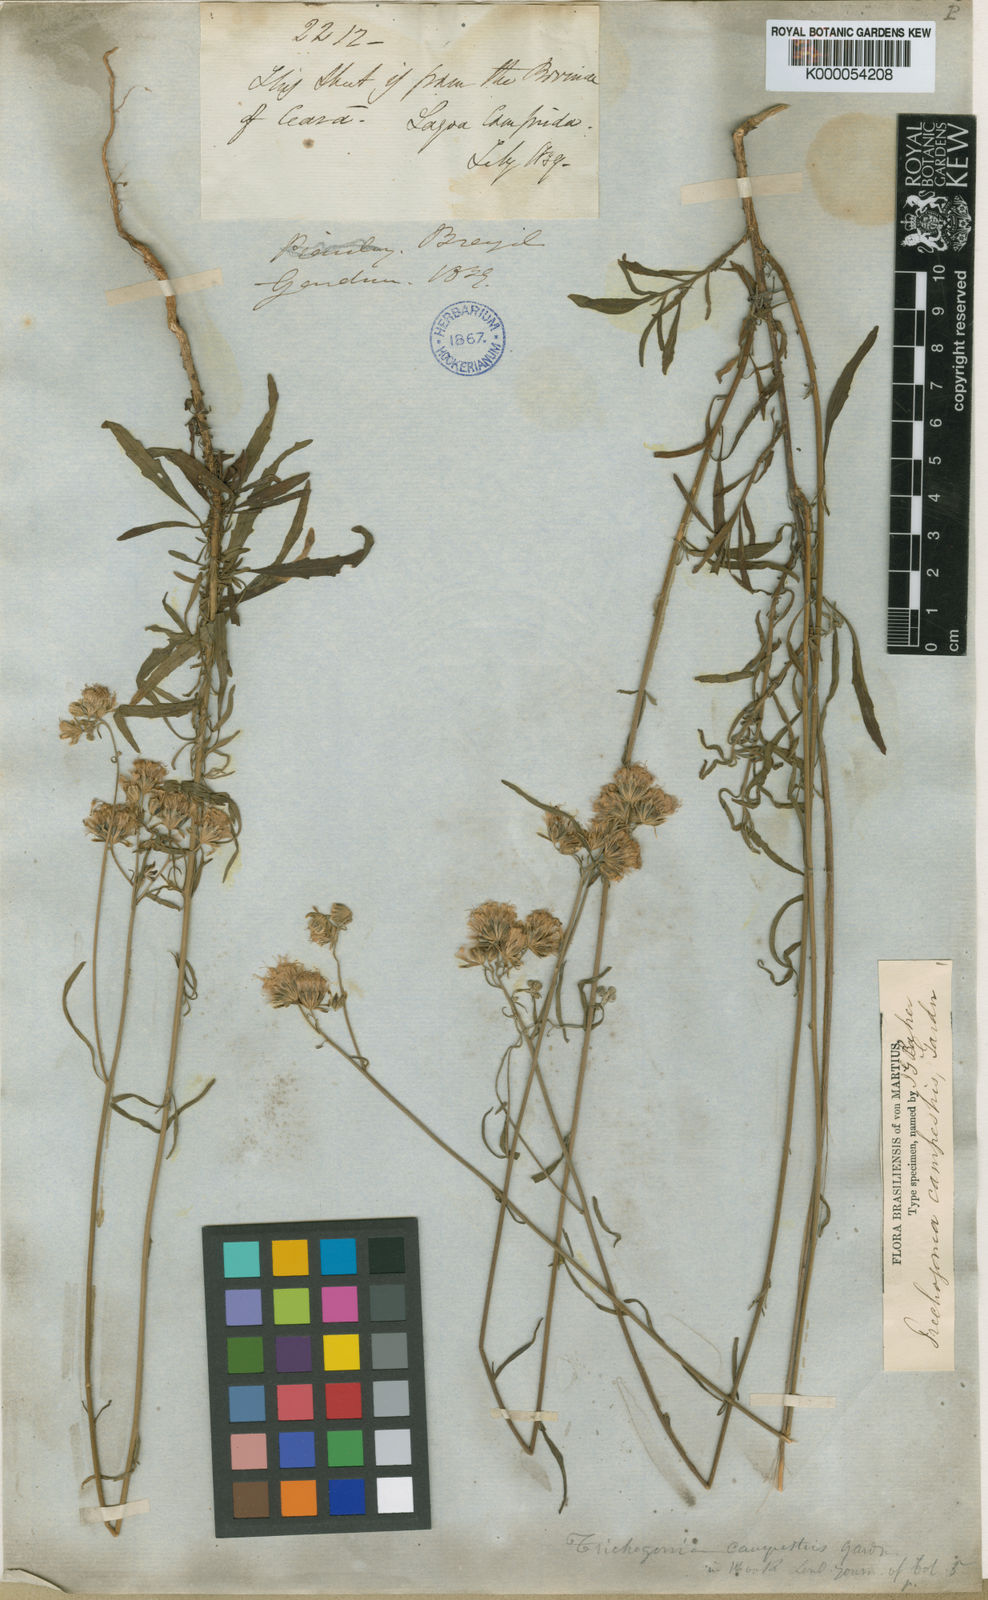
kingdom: Plantae
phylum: Tracheophyta
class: Magnoliopsida
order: Asterales
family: Asteraceae
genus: Trichogonia
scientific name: Trichogonia campestris
